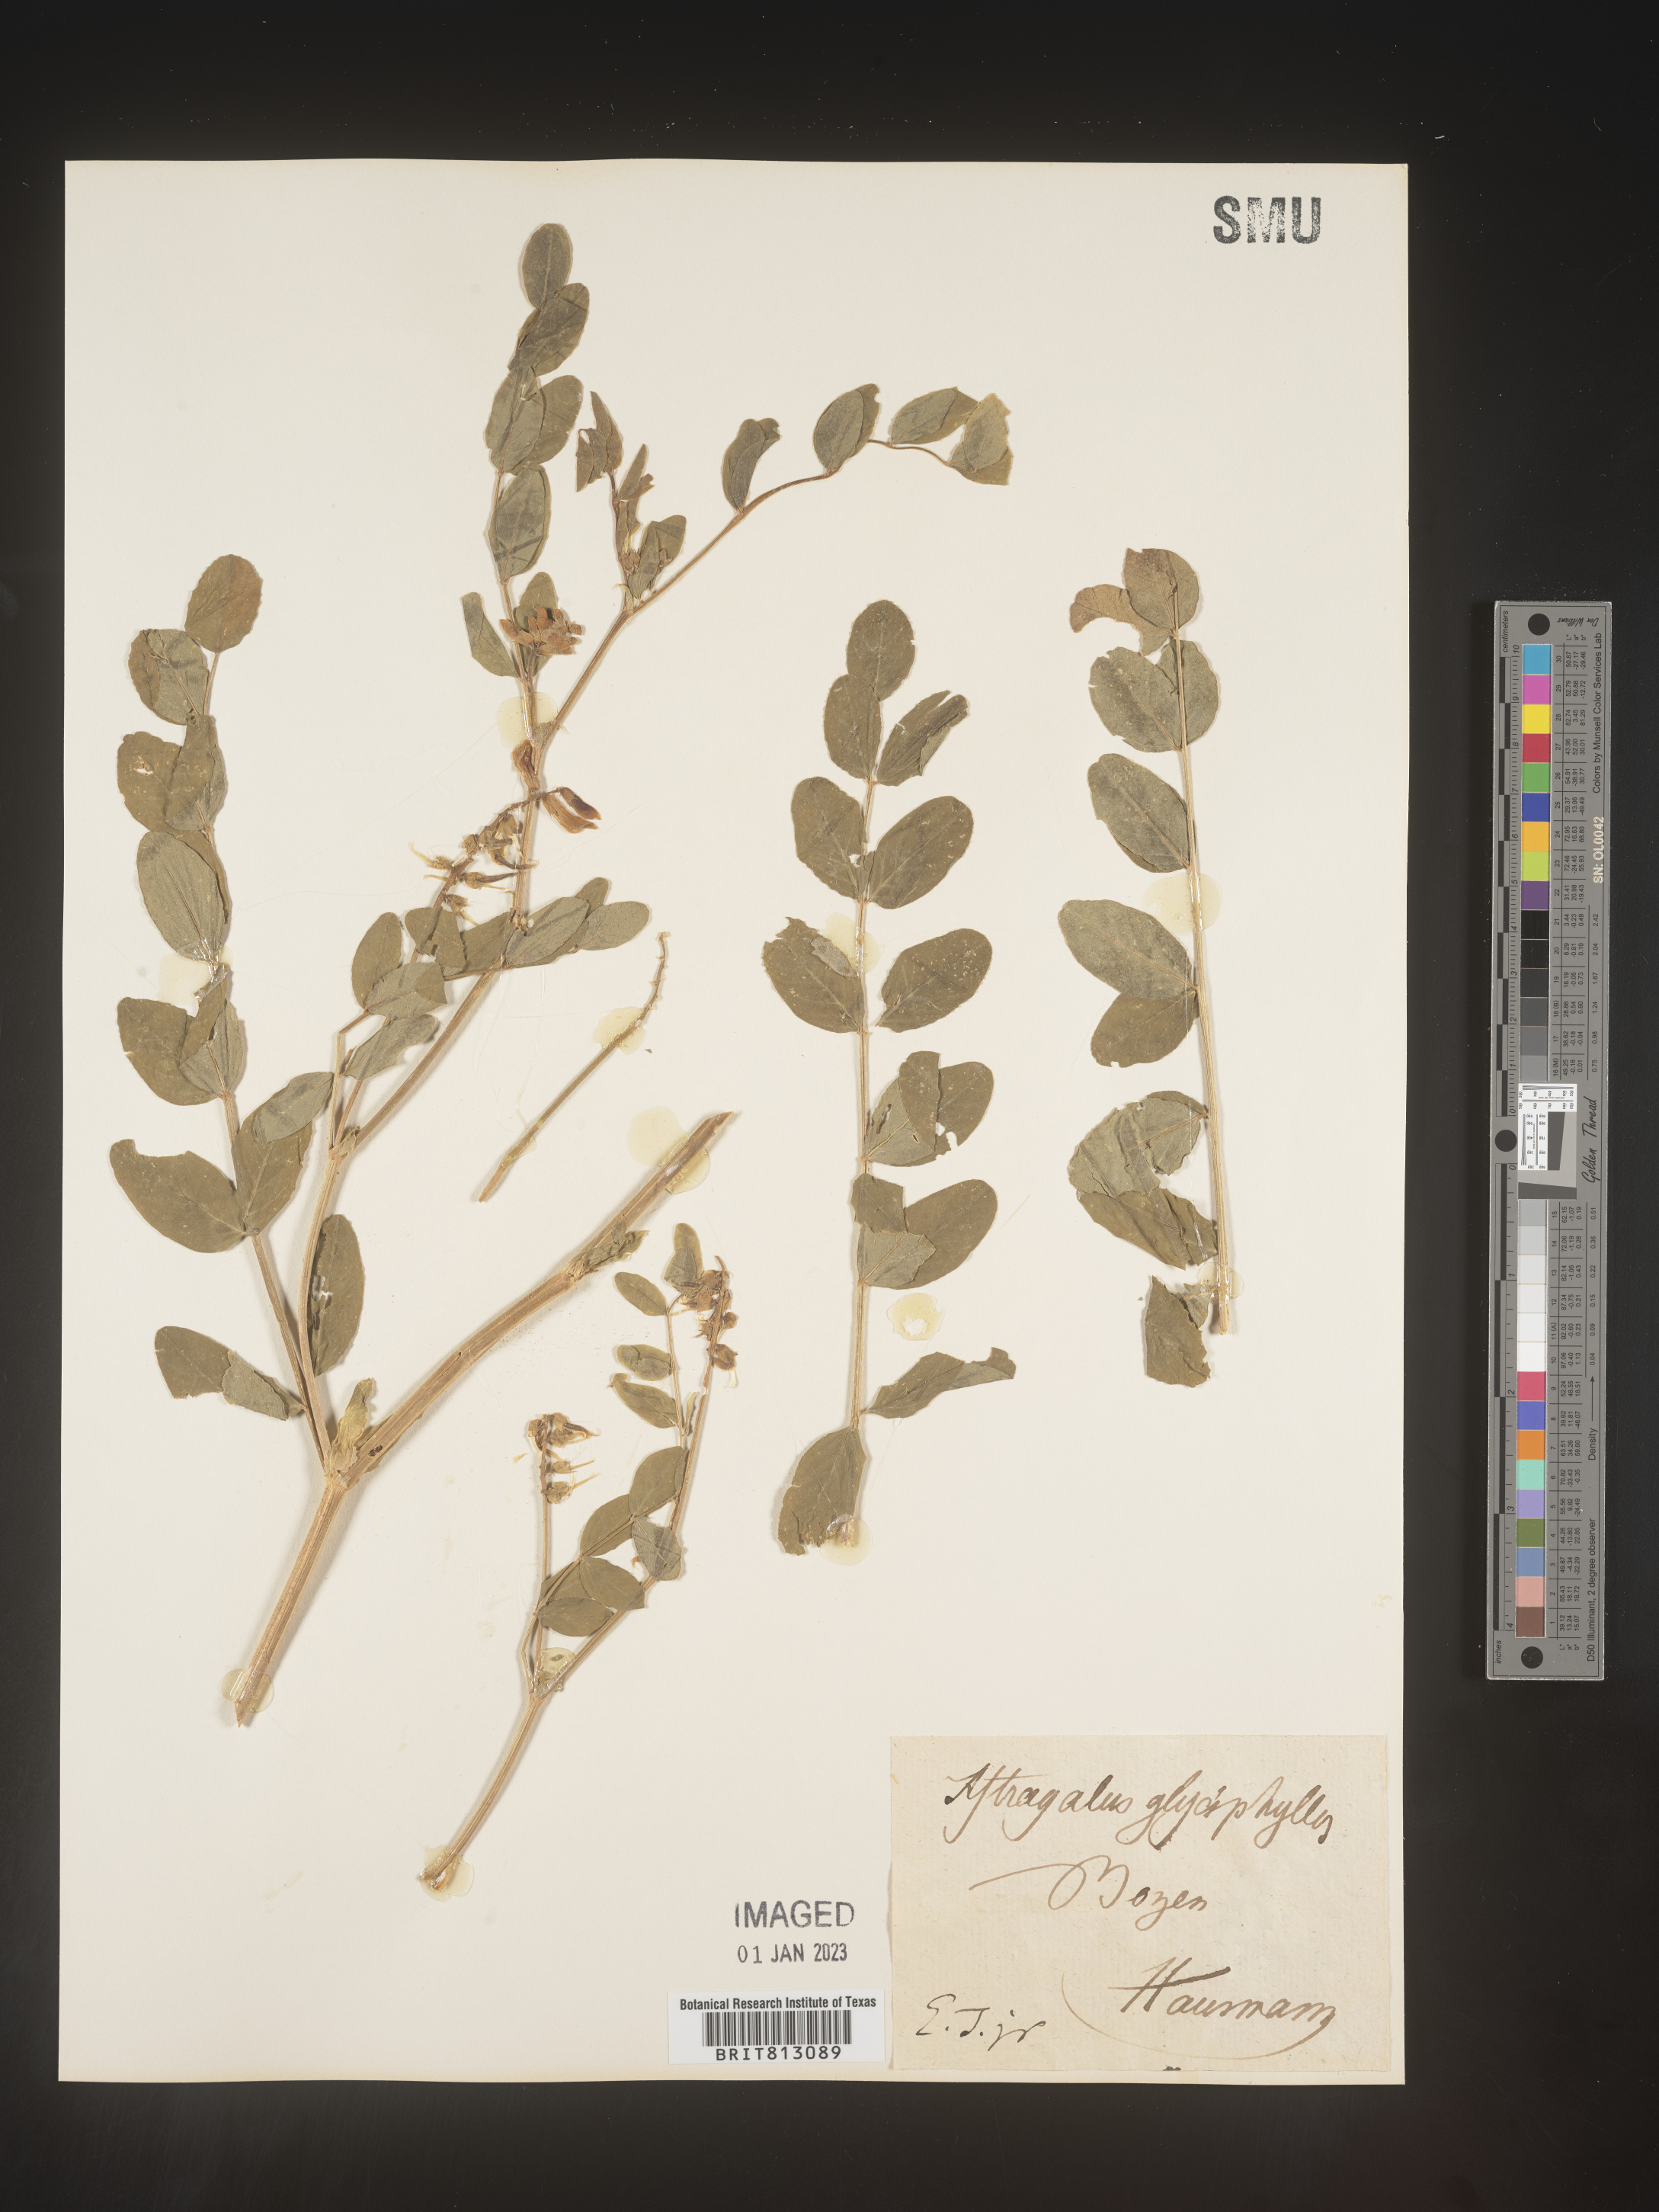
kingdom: Plantae
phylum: Tracheophyta
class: Magnoliopsida
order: Fabales
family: Fabaceae
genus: Astragalus
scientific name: Astragalus
